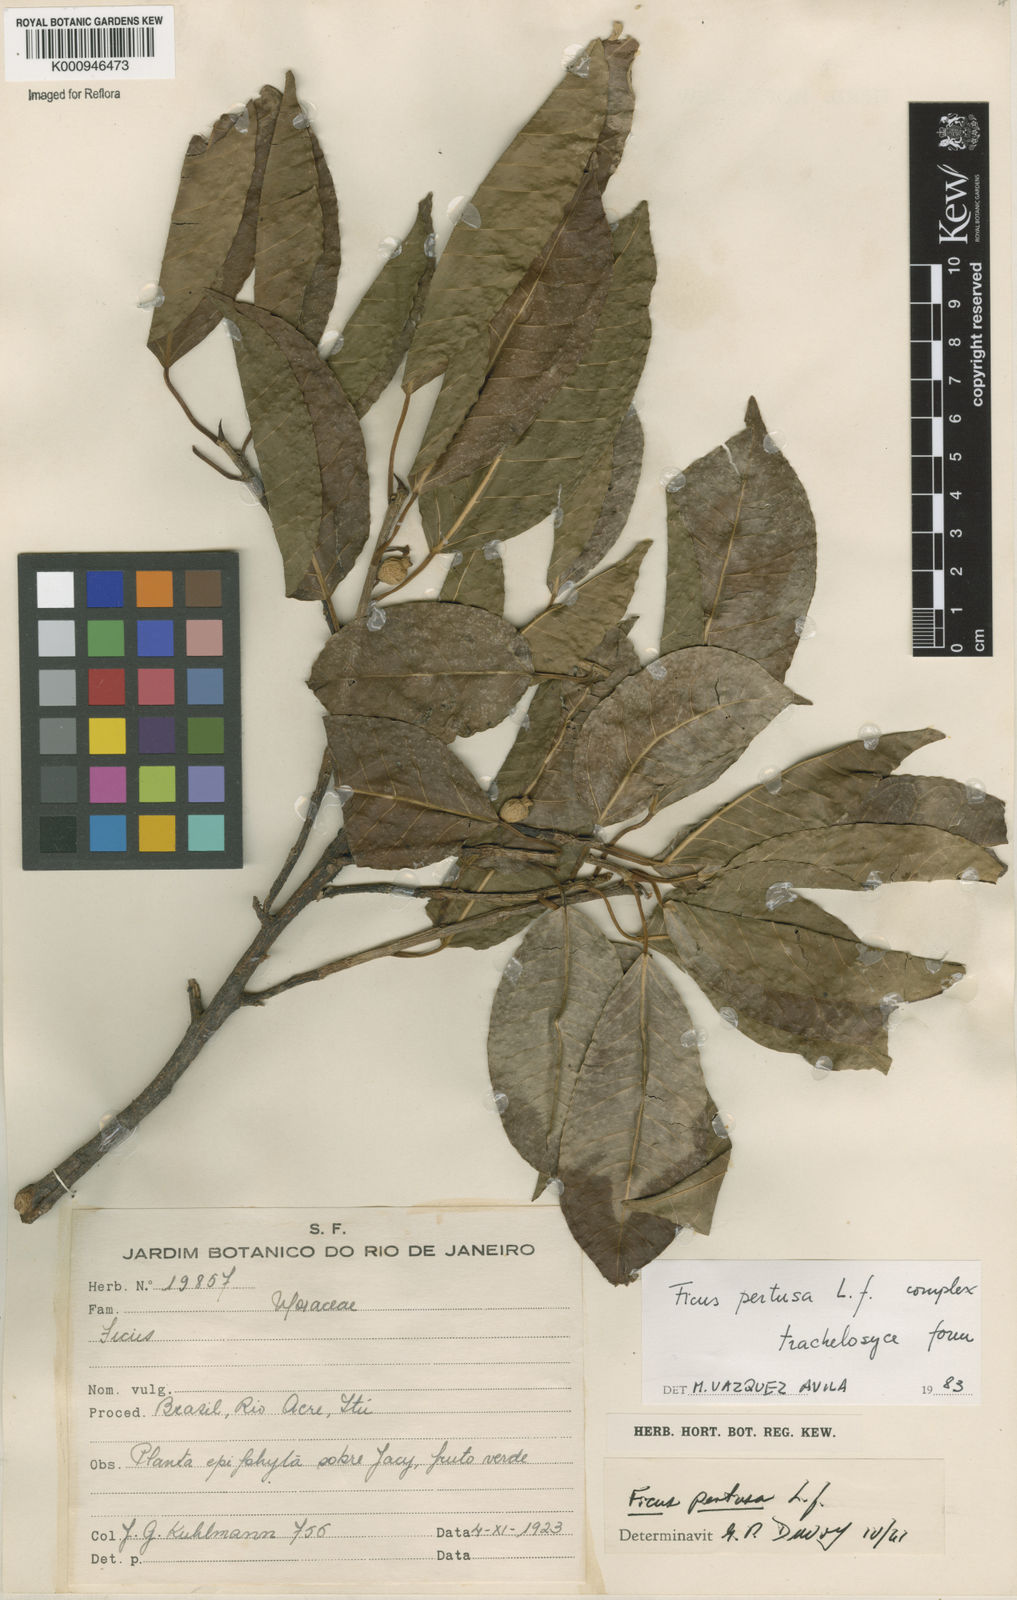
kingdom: Plantae
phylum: Tracheophyta
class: Magnoliopsida
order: Rosales
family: Moraceae
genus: Ficus
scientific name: Ficus pertusa
